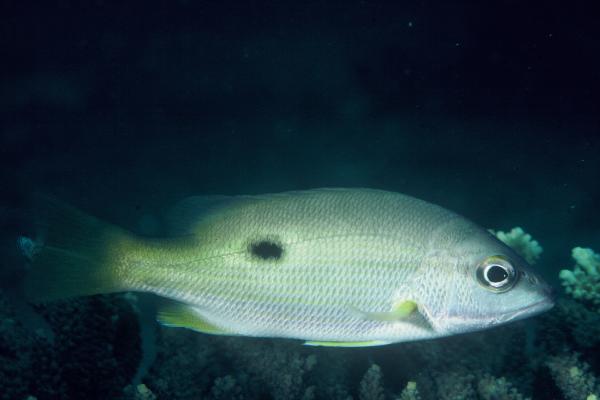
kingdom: Animalia
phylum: Chordata
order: Perciformes
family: Lutjanidae
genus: Lutjanus
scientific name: Lutjanus fulviflamma
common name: Blackspot snapper
